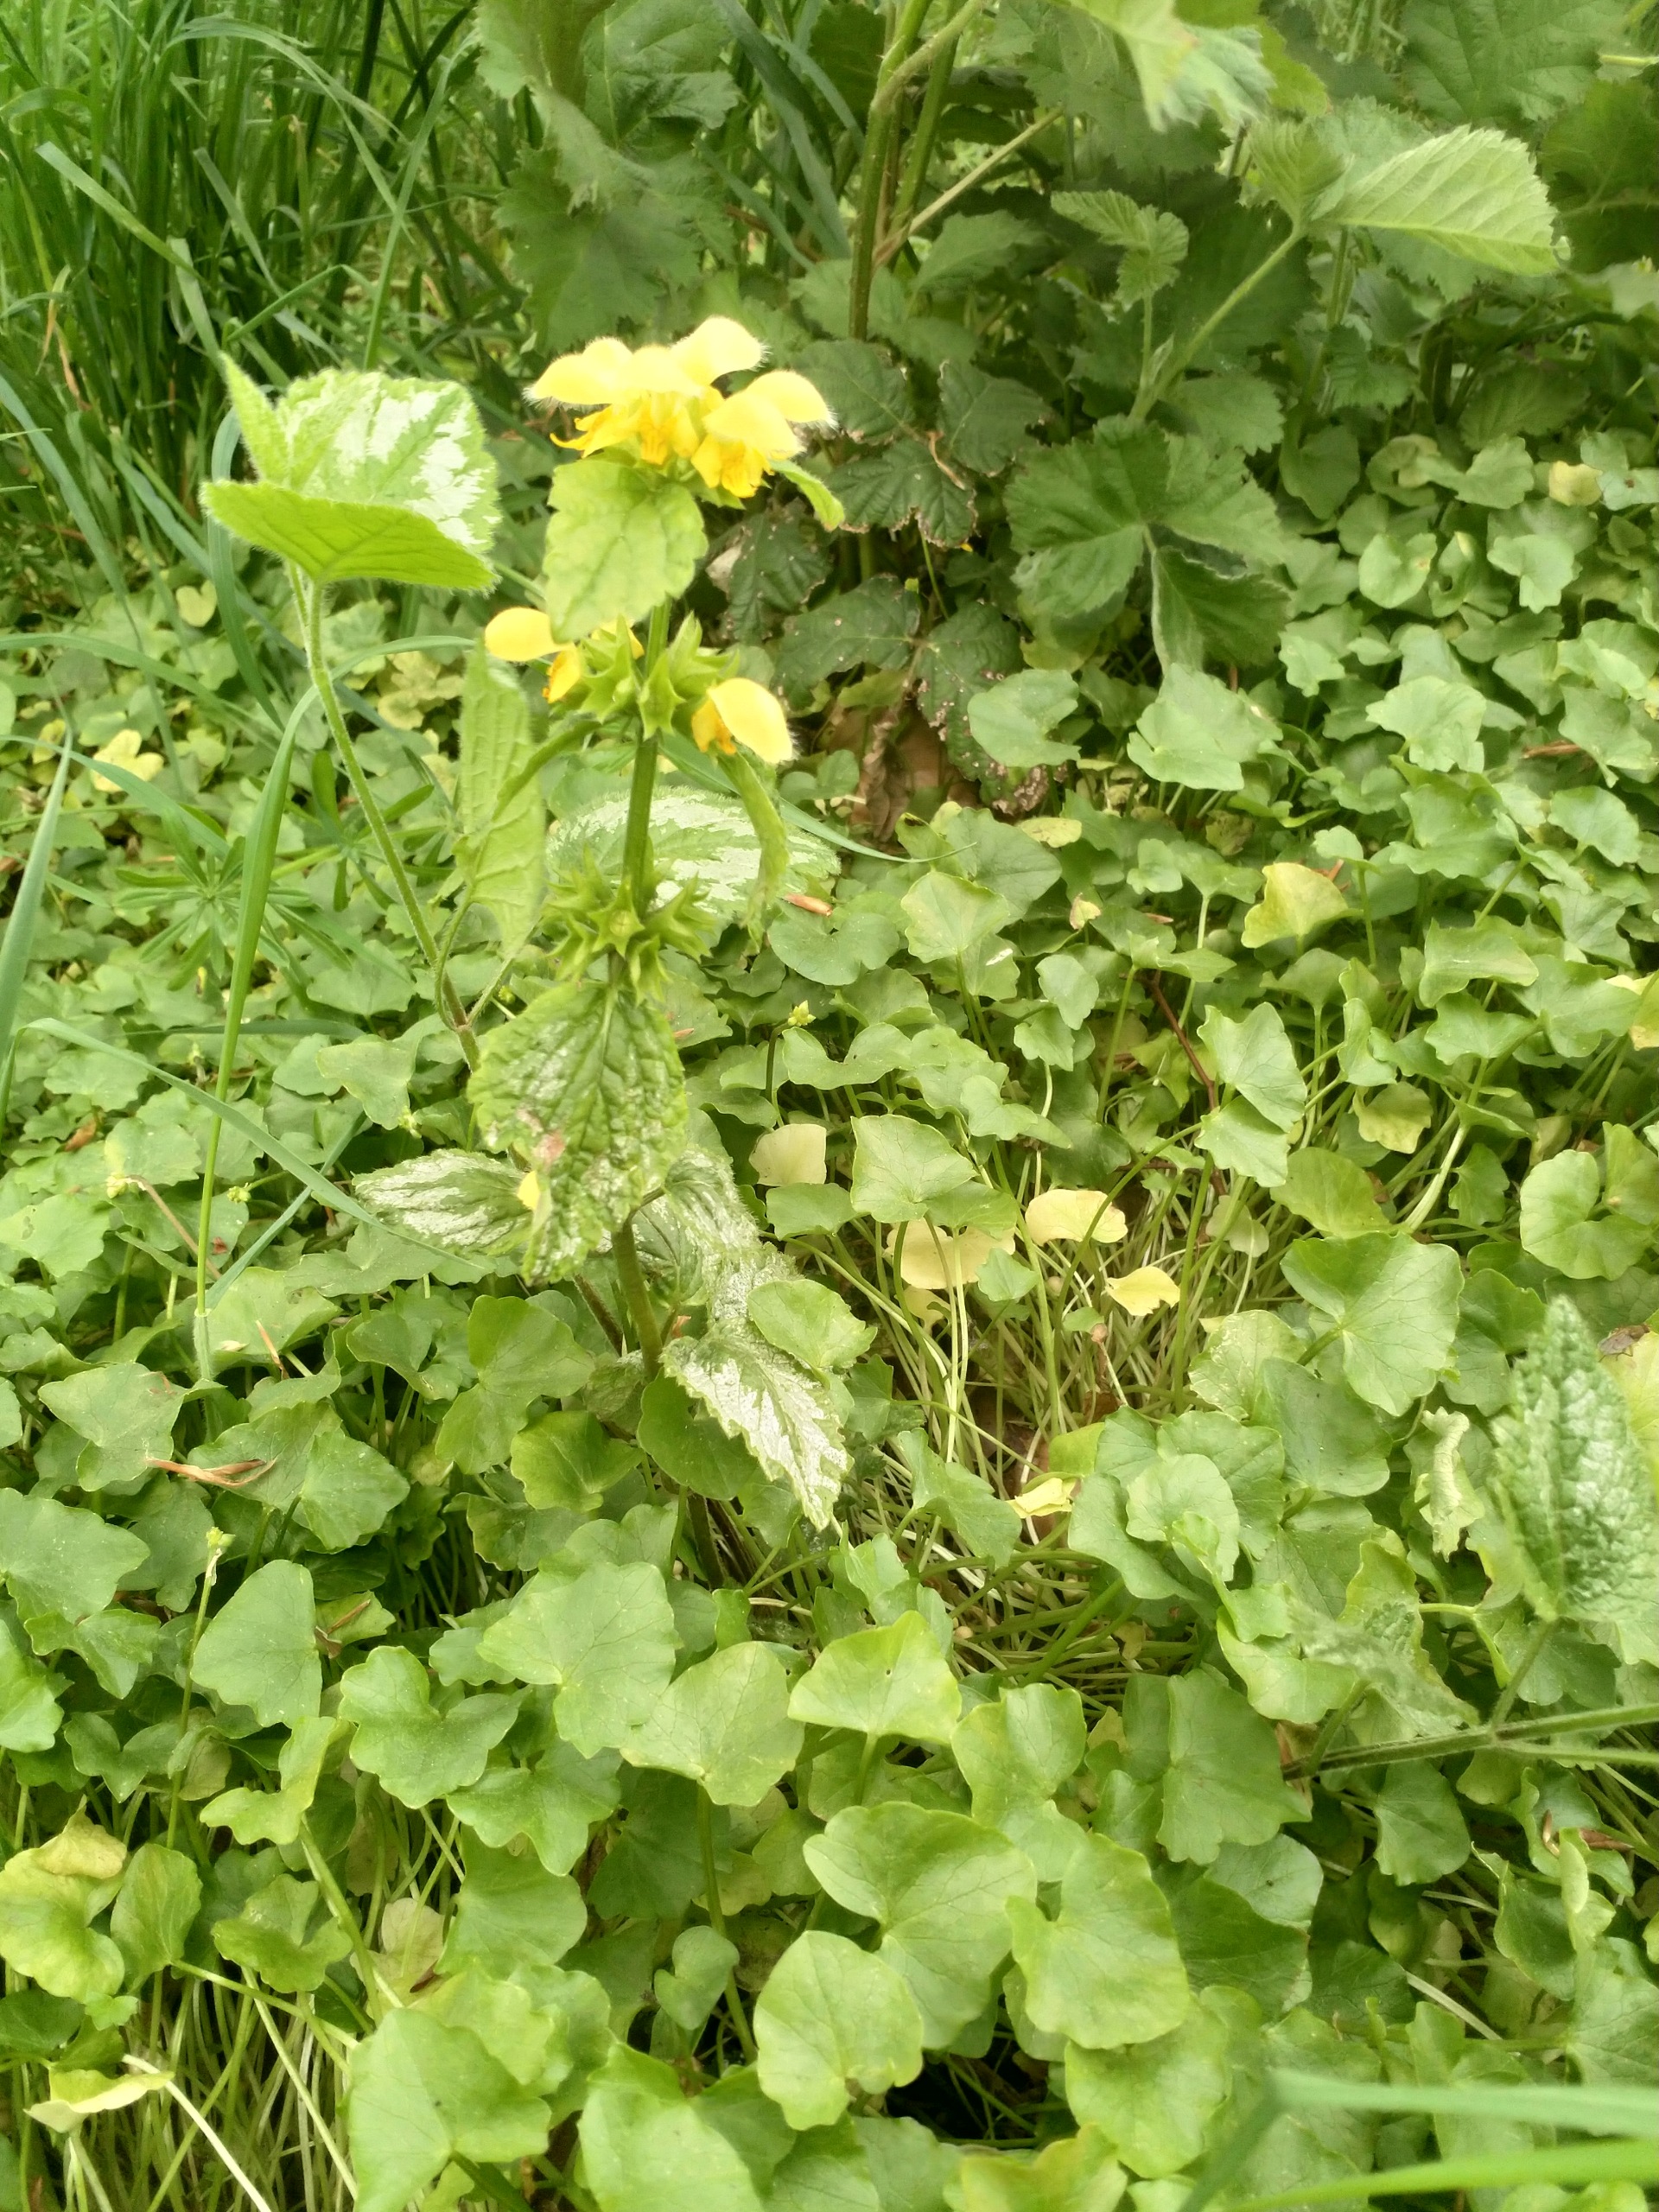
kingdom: Plantae
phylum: Tracheophyta
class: Magnoliopsida
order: Lamiales
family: Lamiaceae
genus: Lamium
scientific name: Lamium galeobdolon
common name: Have-guldnælde
